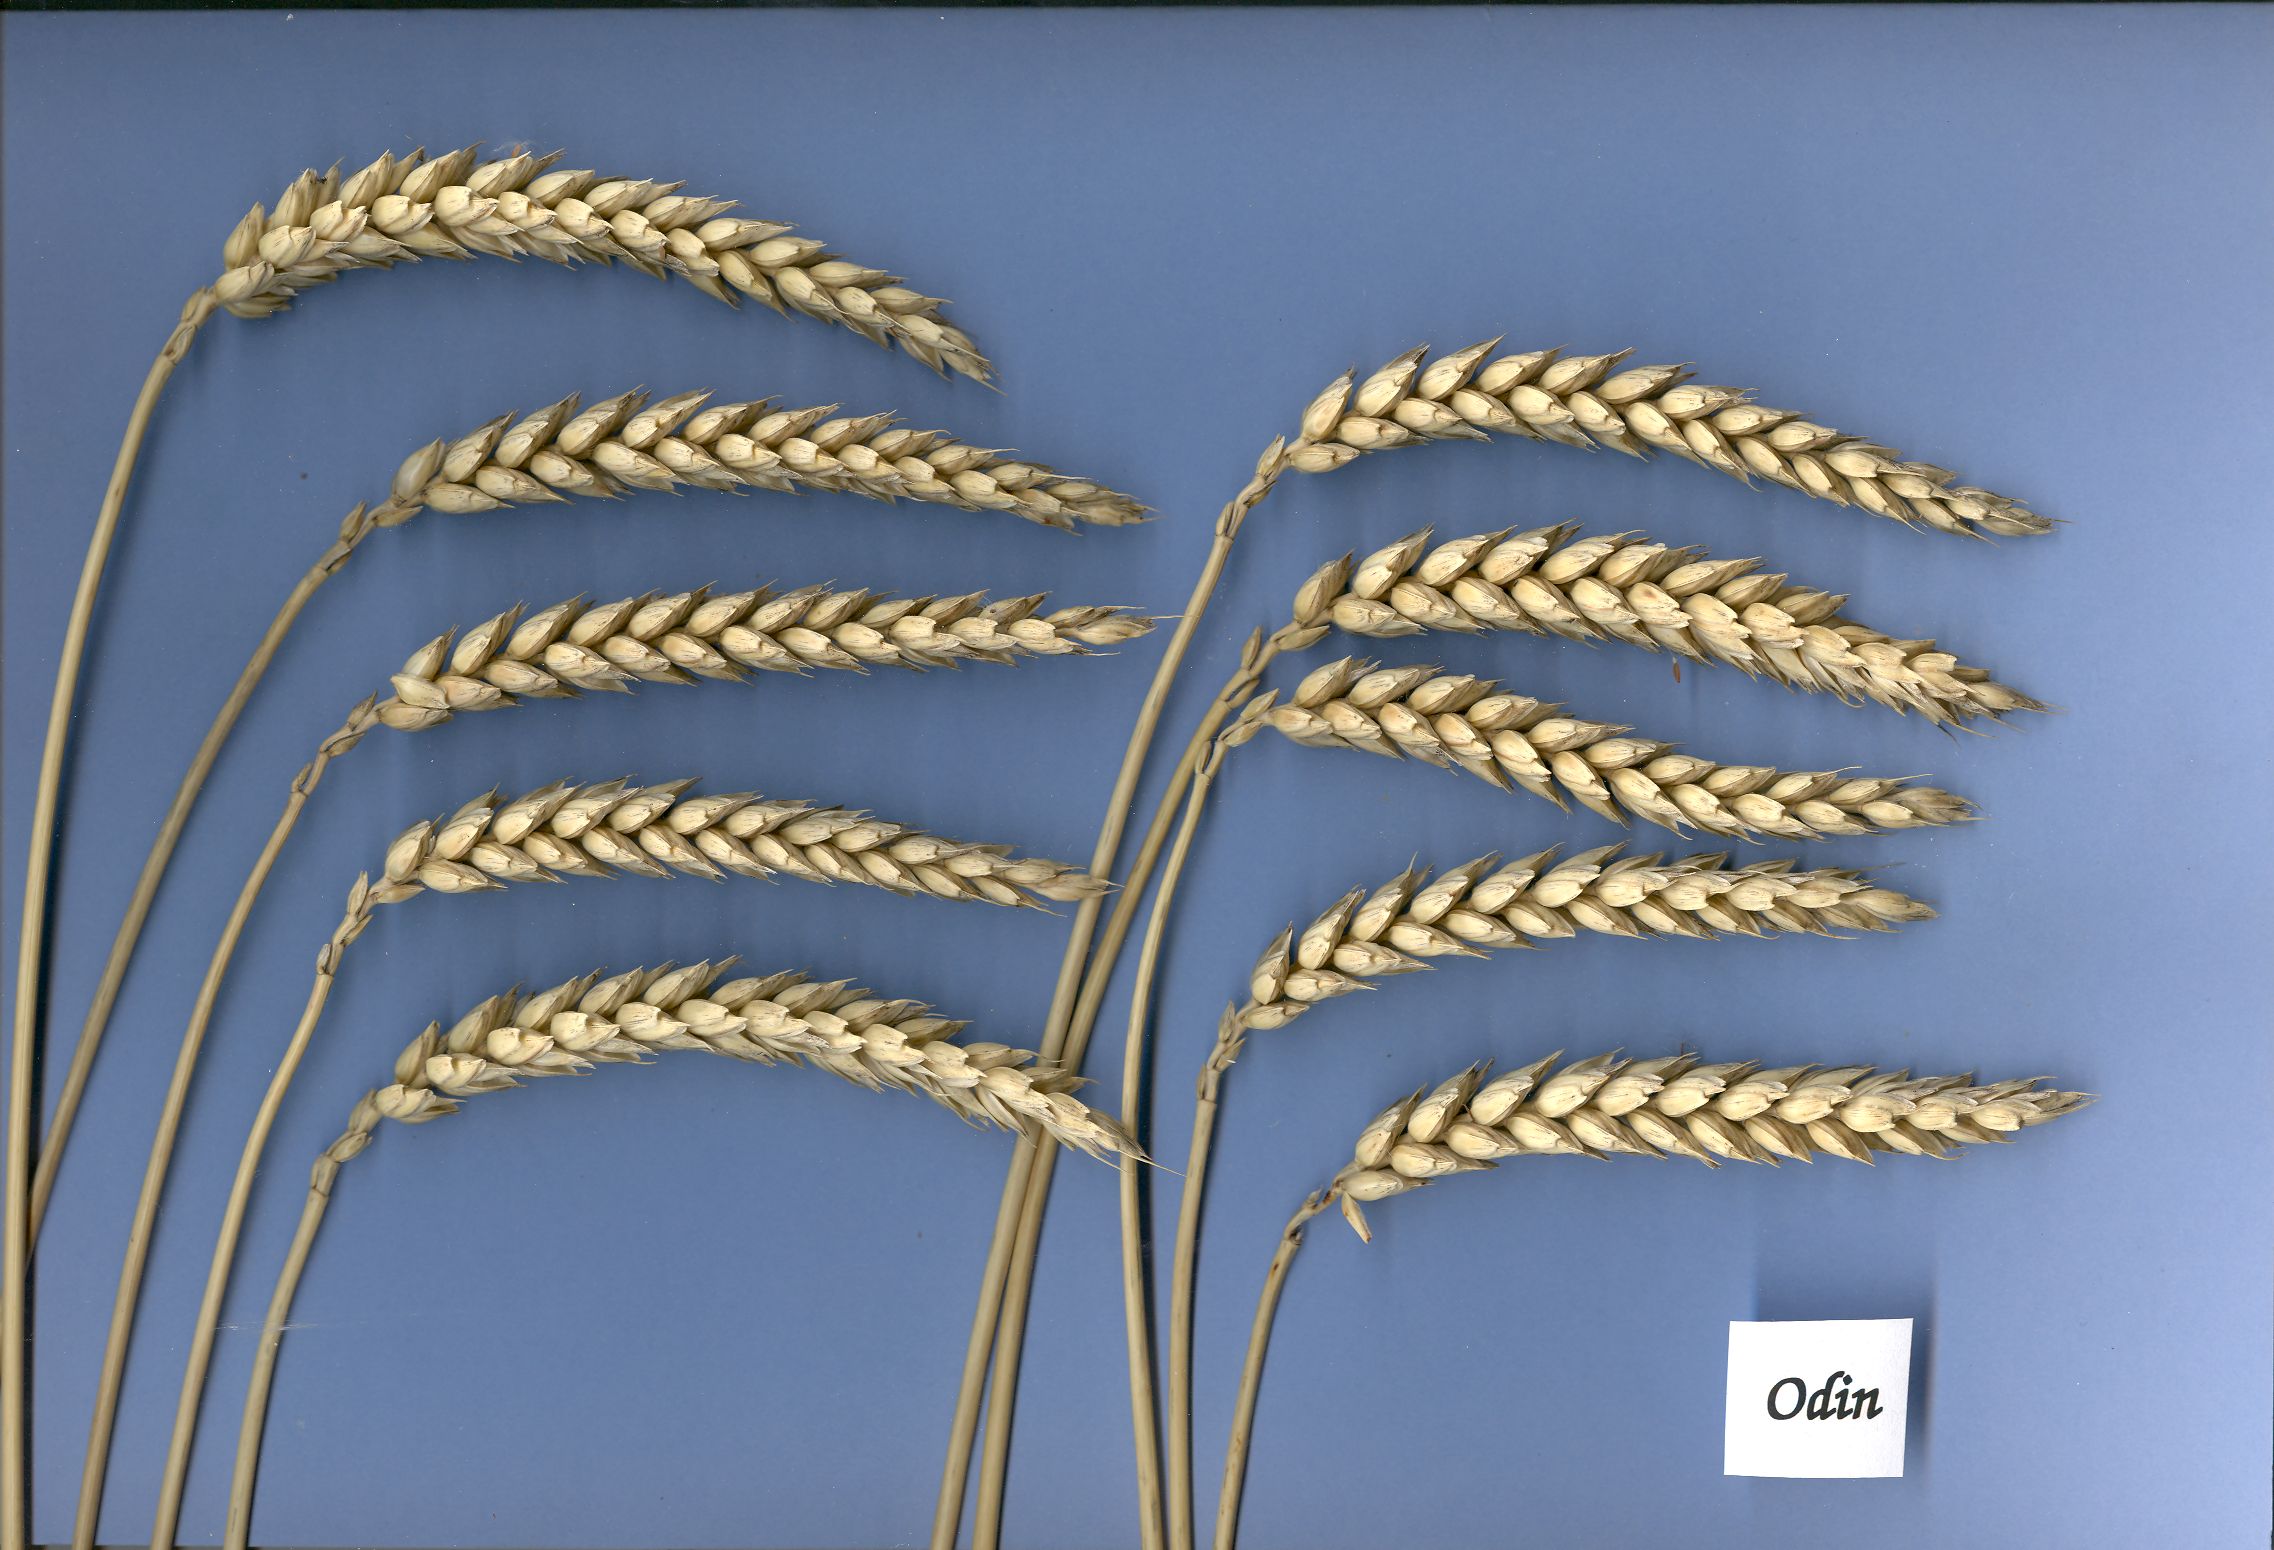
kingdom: Plantae
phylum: Tracheophyta
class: Liliopsida
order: Poales
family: Poaceae
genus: Triticum
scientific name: Triticum aestivum
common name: Common wheat
